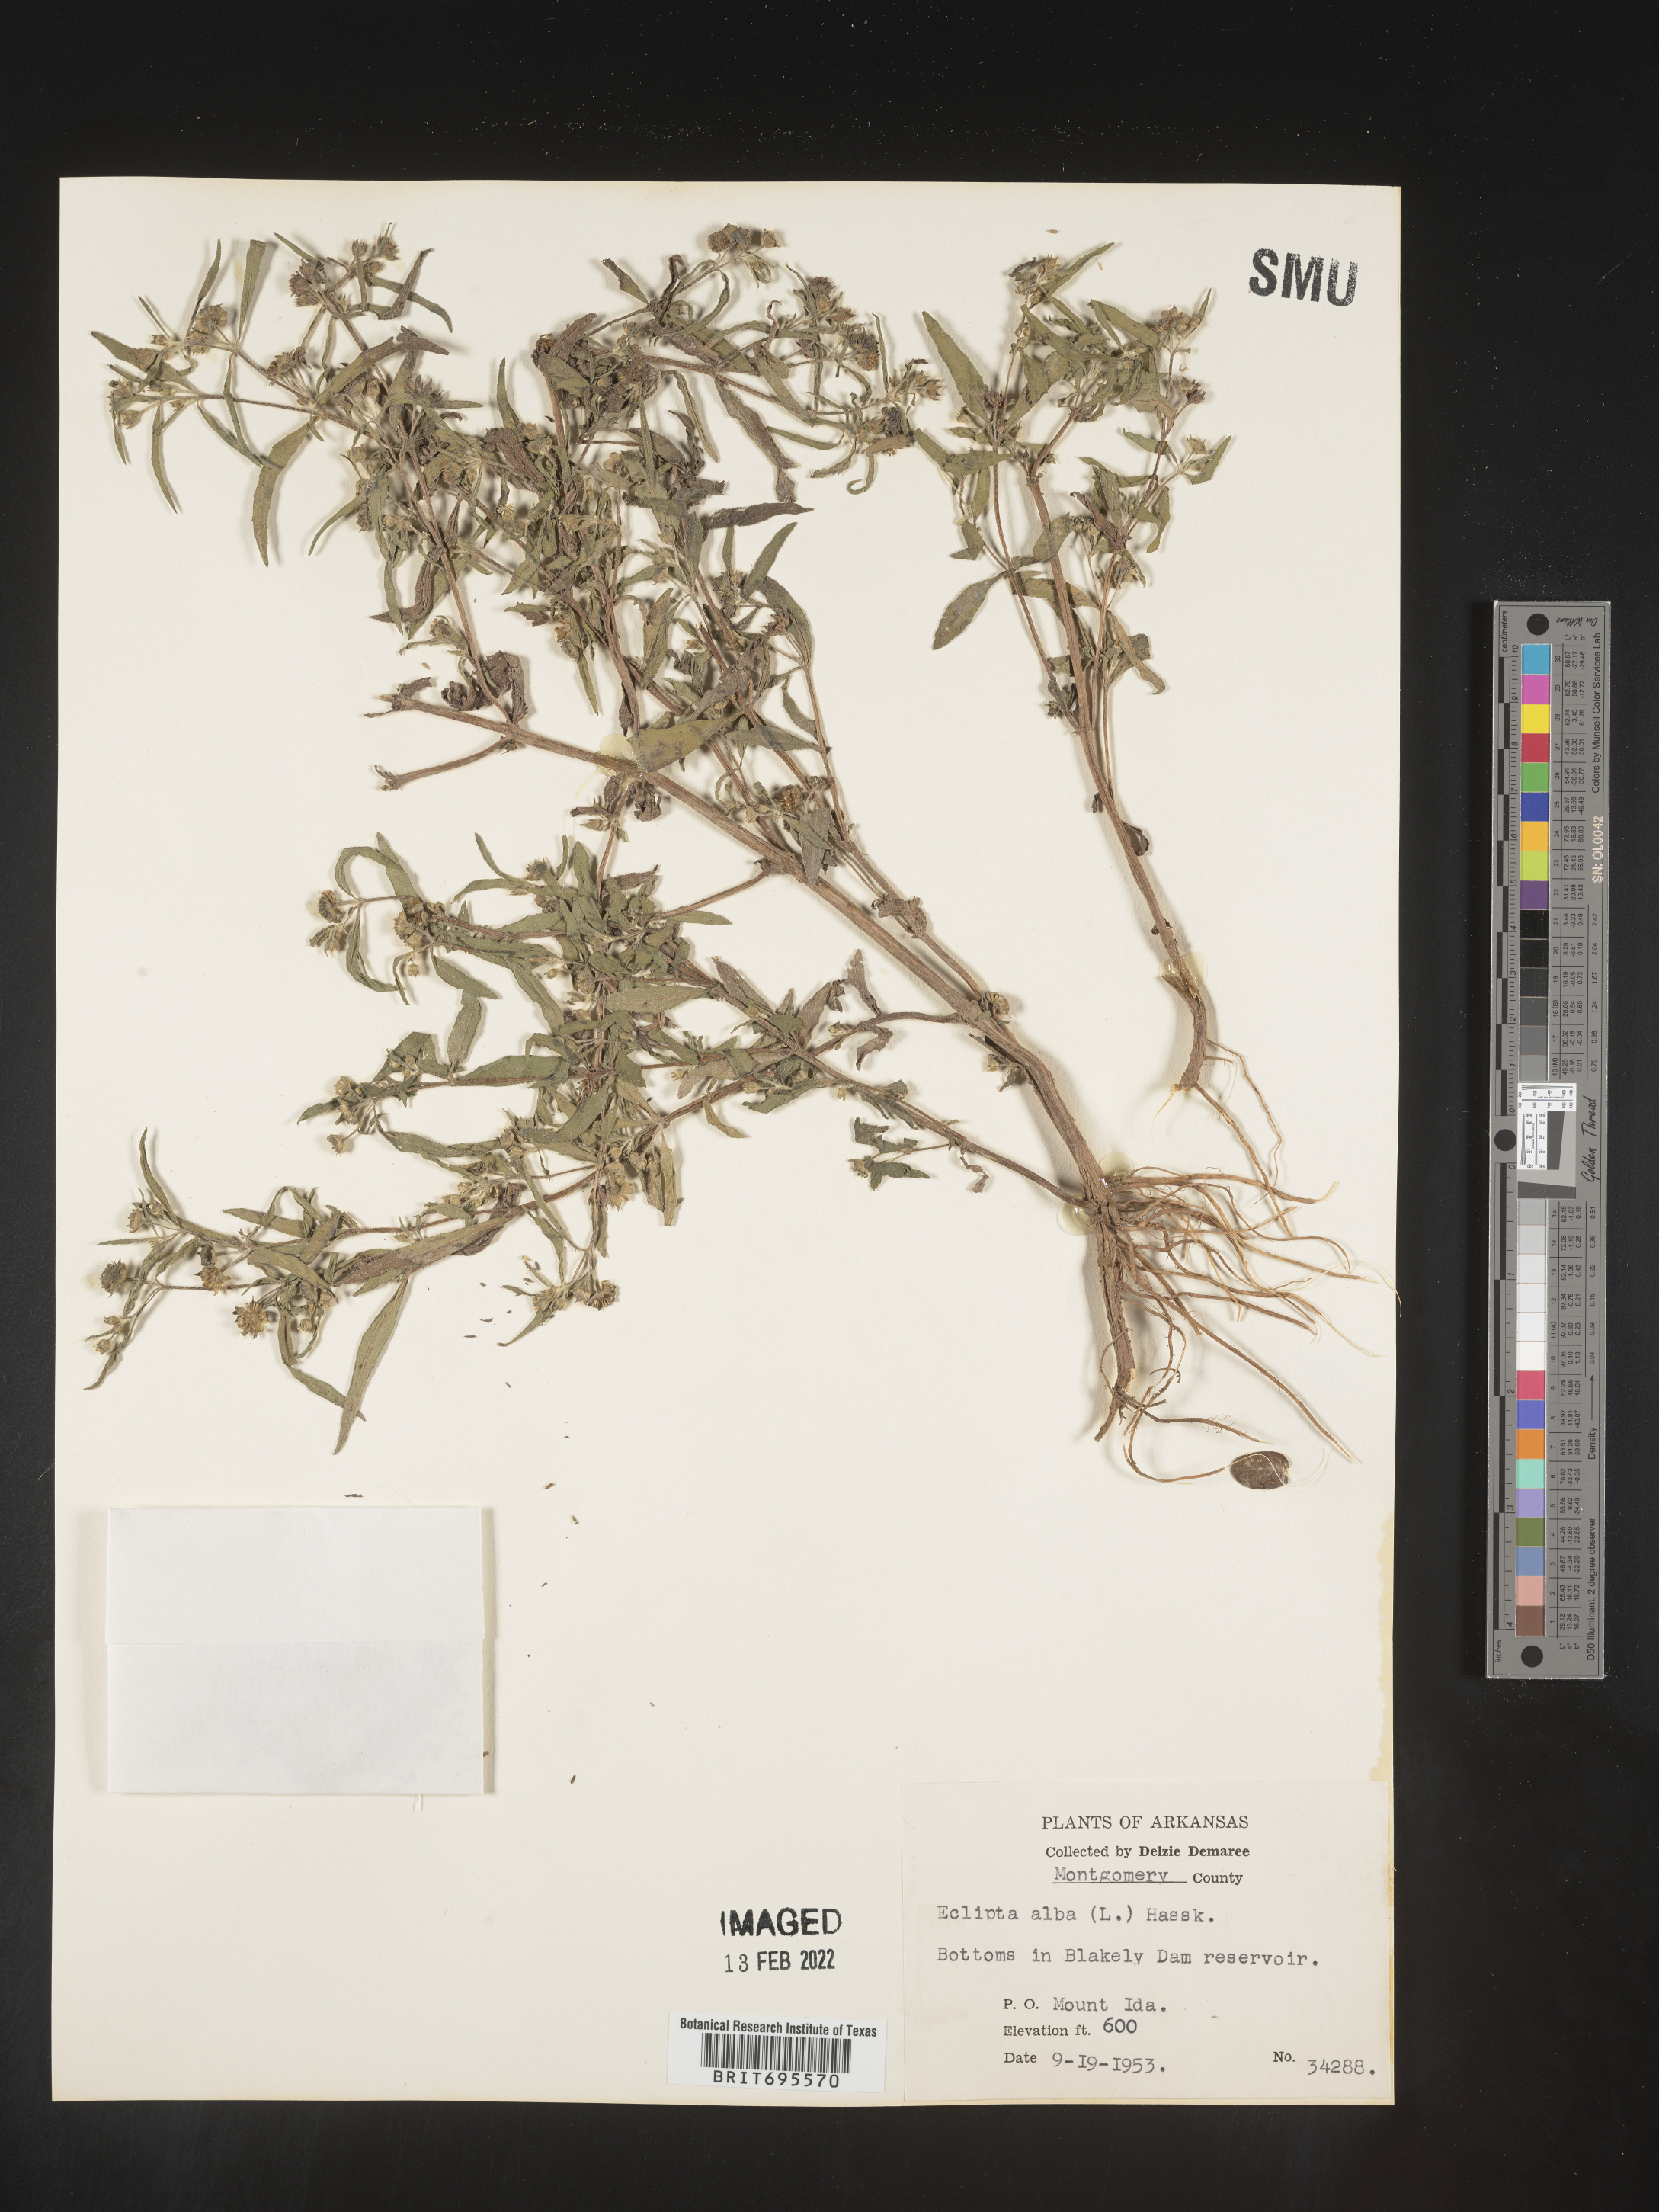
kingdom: Plantae
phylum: Tracheophyta
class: Magnoliopsida
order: Asterales
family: Asteraceae
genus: Eclipta
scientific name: Eclipta alba
